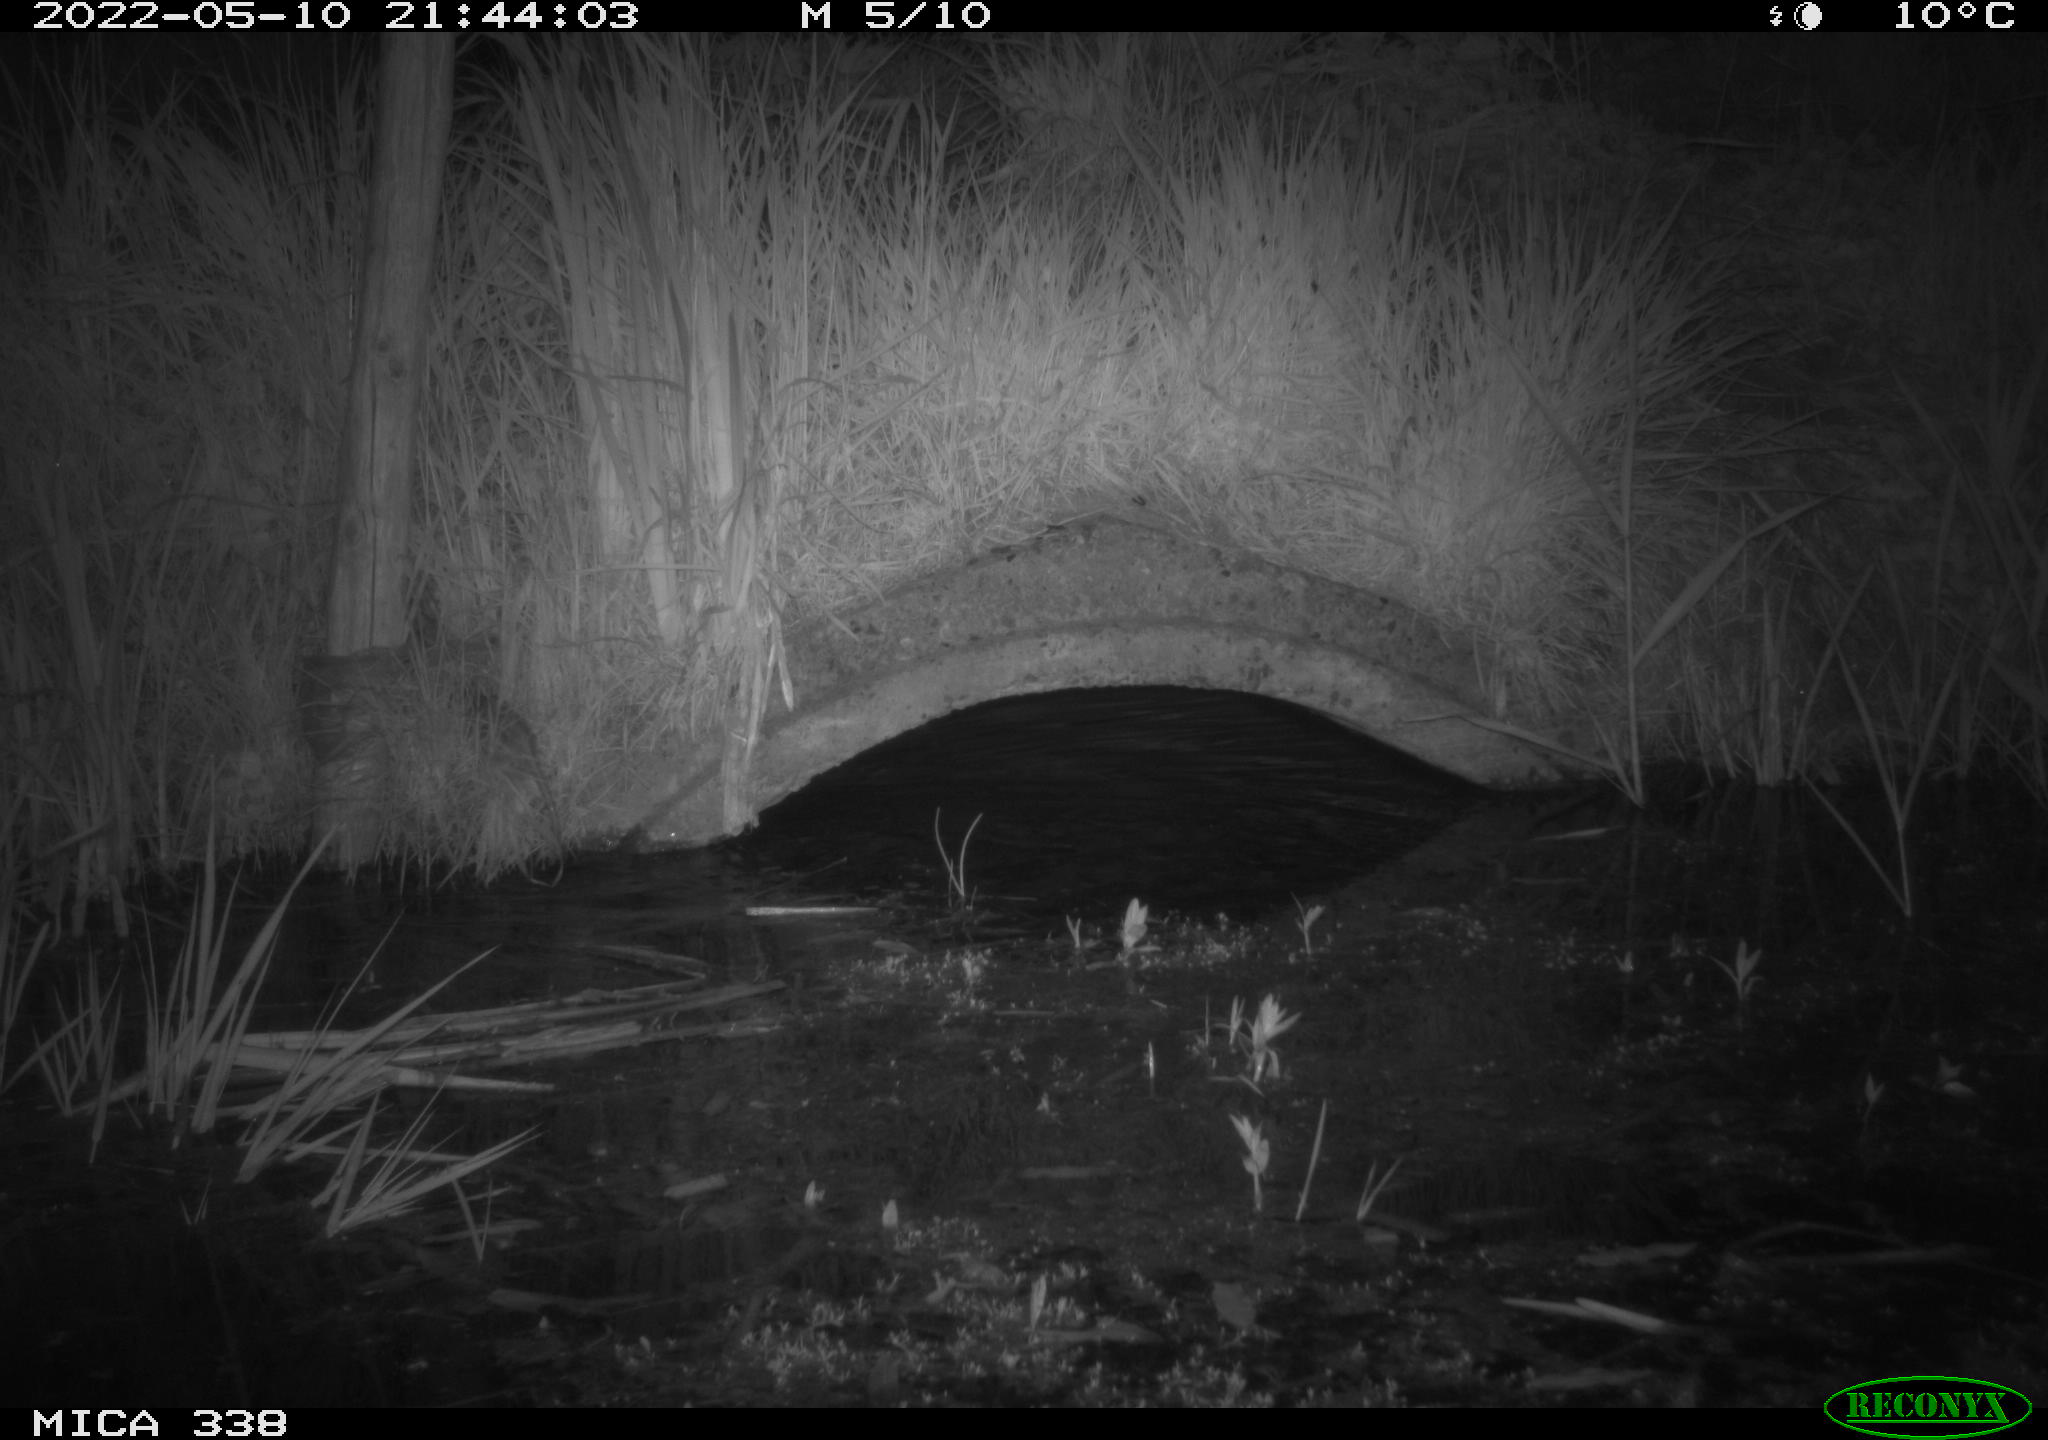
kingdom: Animalia
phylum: Chordata
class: Mammalia
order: Rodentia
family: Muridae
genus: Rattus
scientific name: Rattus norvegicus
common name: Brown rat
